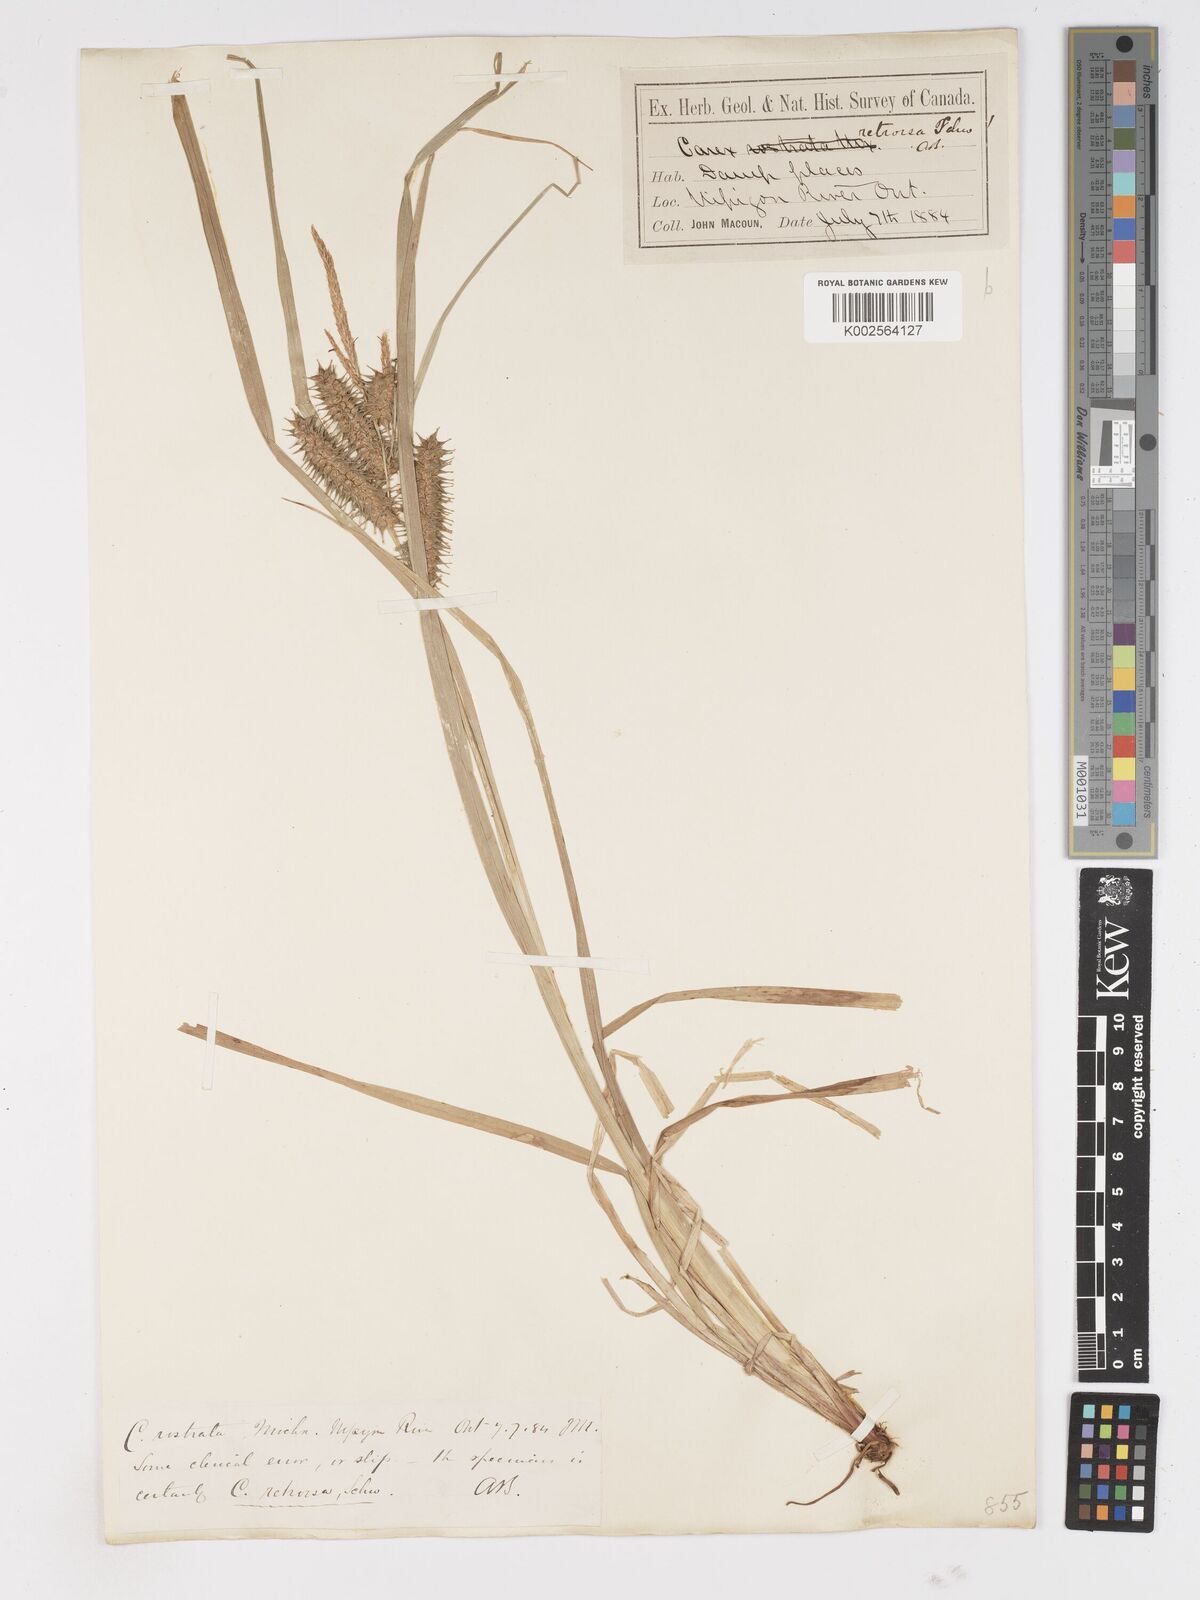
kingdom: Plantae
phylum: Tracheophyta
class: Liliopsida
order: Poales
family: Cyperaceae
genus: Carex
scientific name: Carex retrorsa
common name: Knot-sheath sedge
